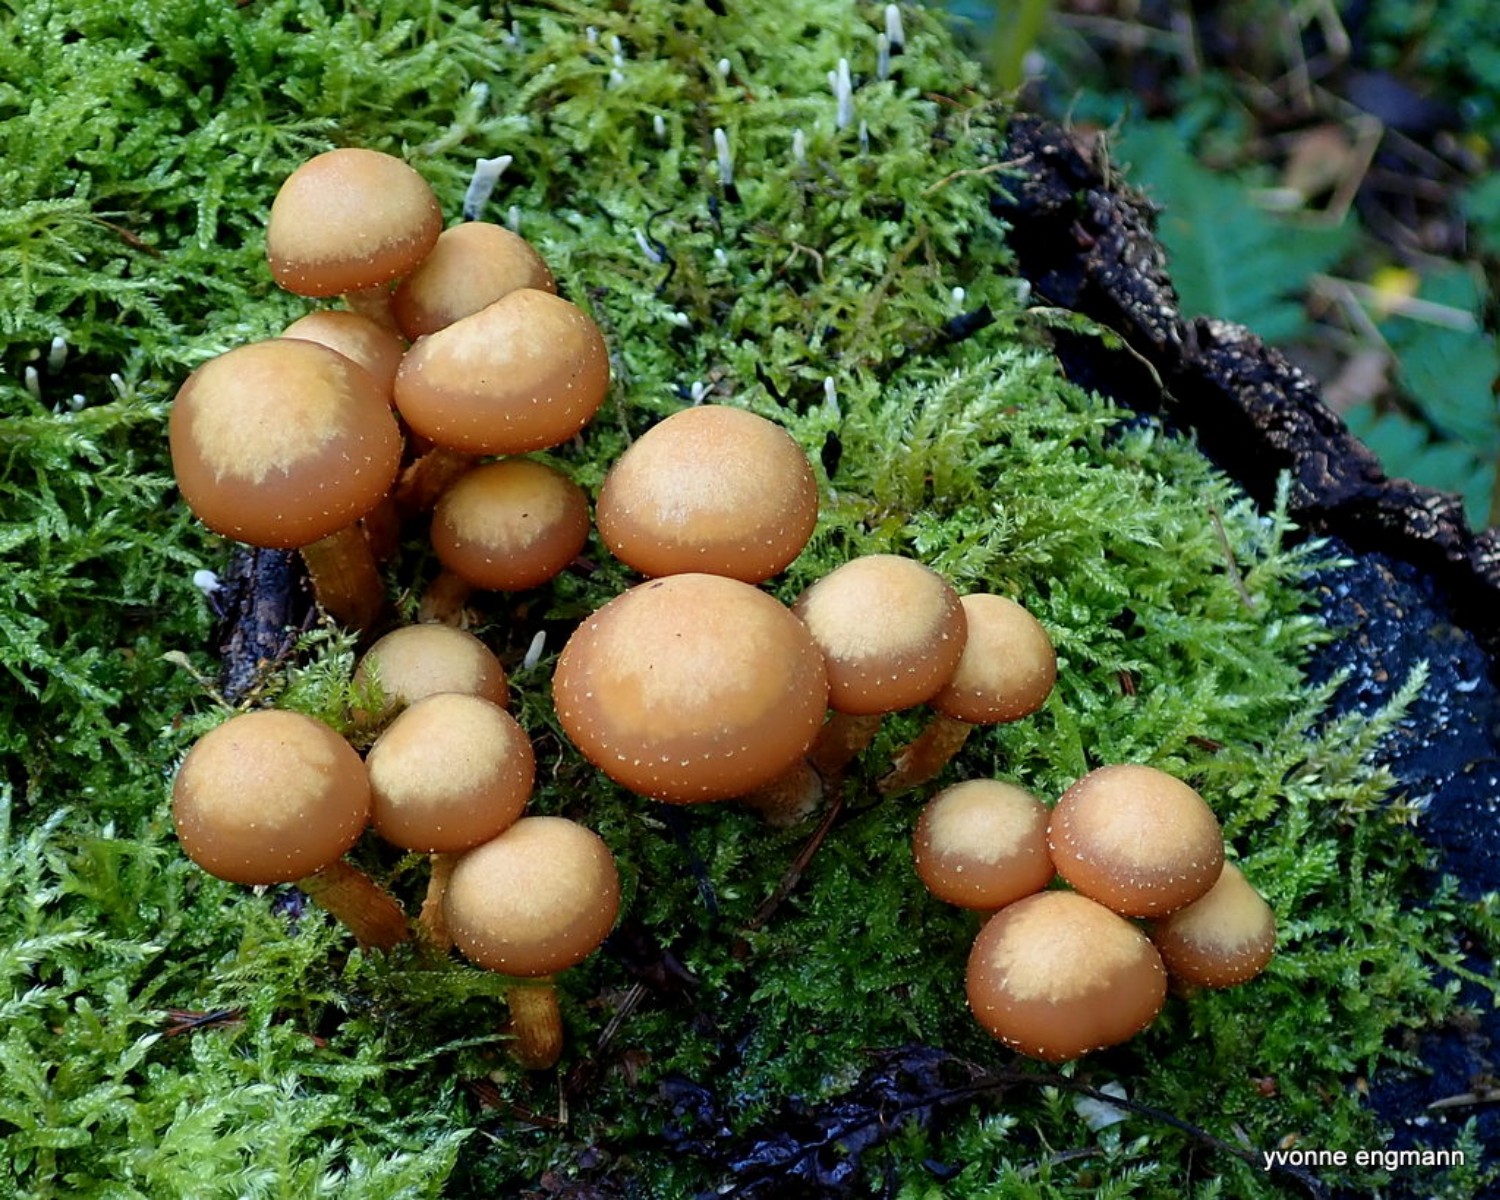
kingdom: Fungi
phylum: Basidiomycota
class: Agaricomycetes
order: Agaricales
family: Strophariaceae
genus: Kuehneromyces
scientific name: Kuehneromyces mutabilis
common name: foranderlig skælhat
